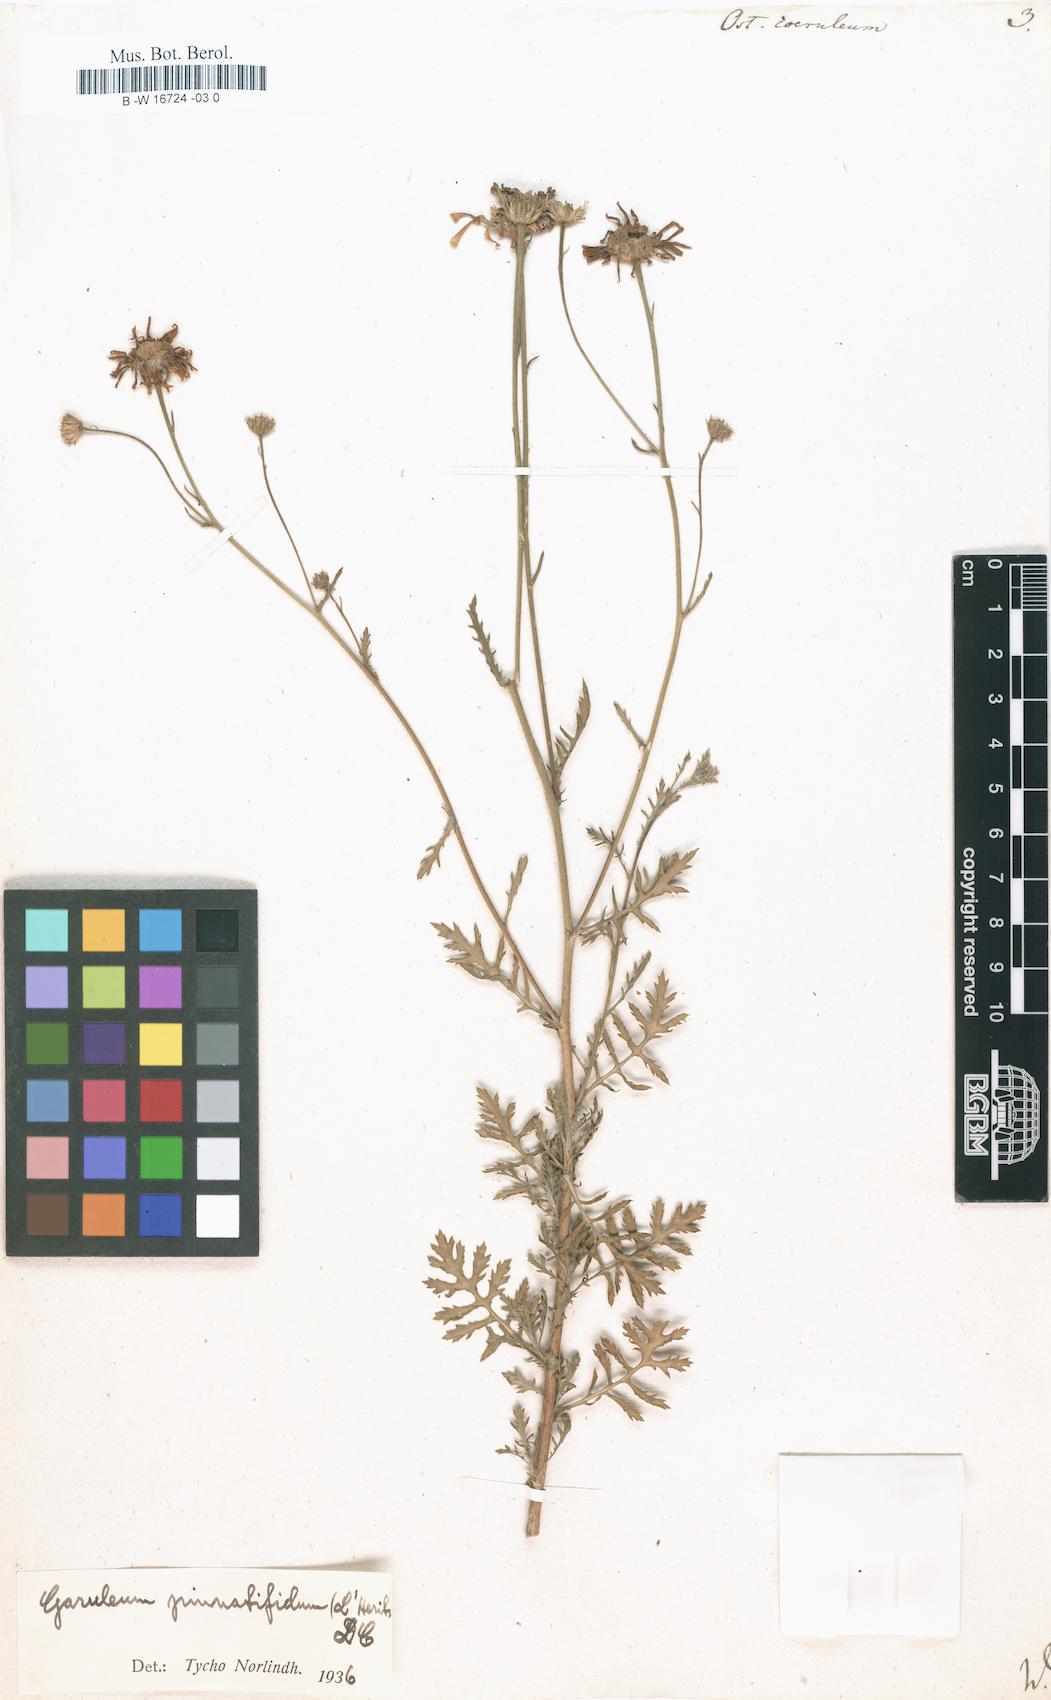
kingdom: Plantae
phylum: Tracheophyta
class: Magnoliopsida
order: Asterales
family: Asteraceae
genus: Osteospermum
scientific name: Osteospermum coeruleum
